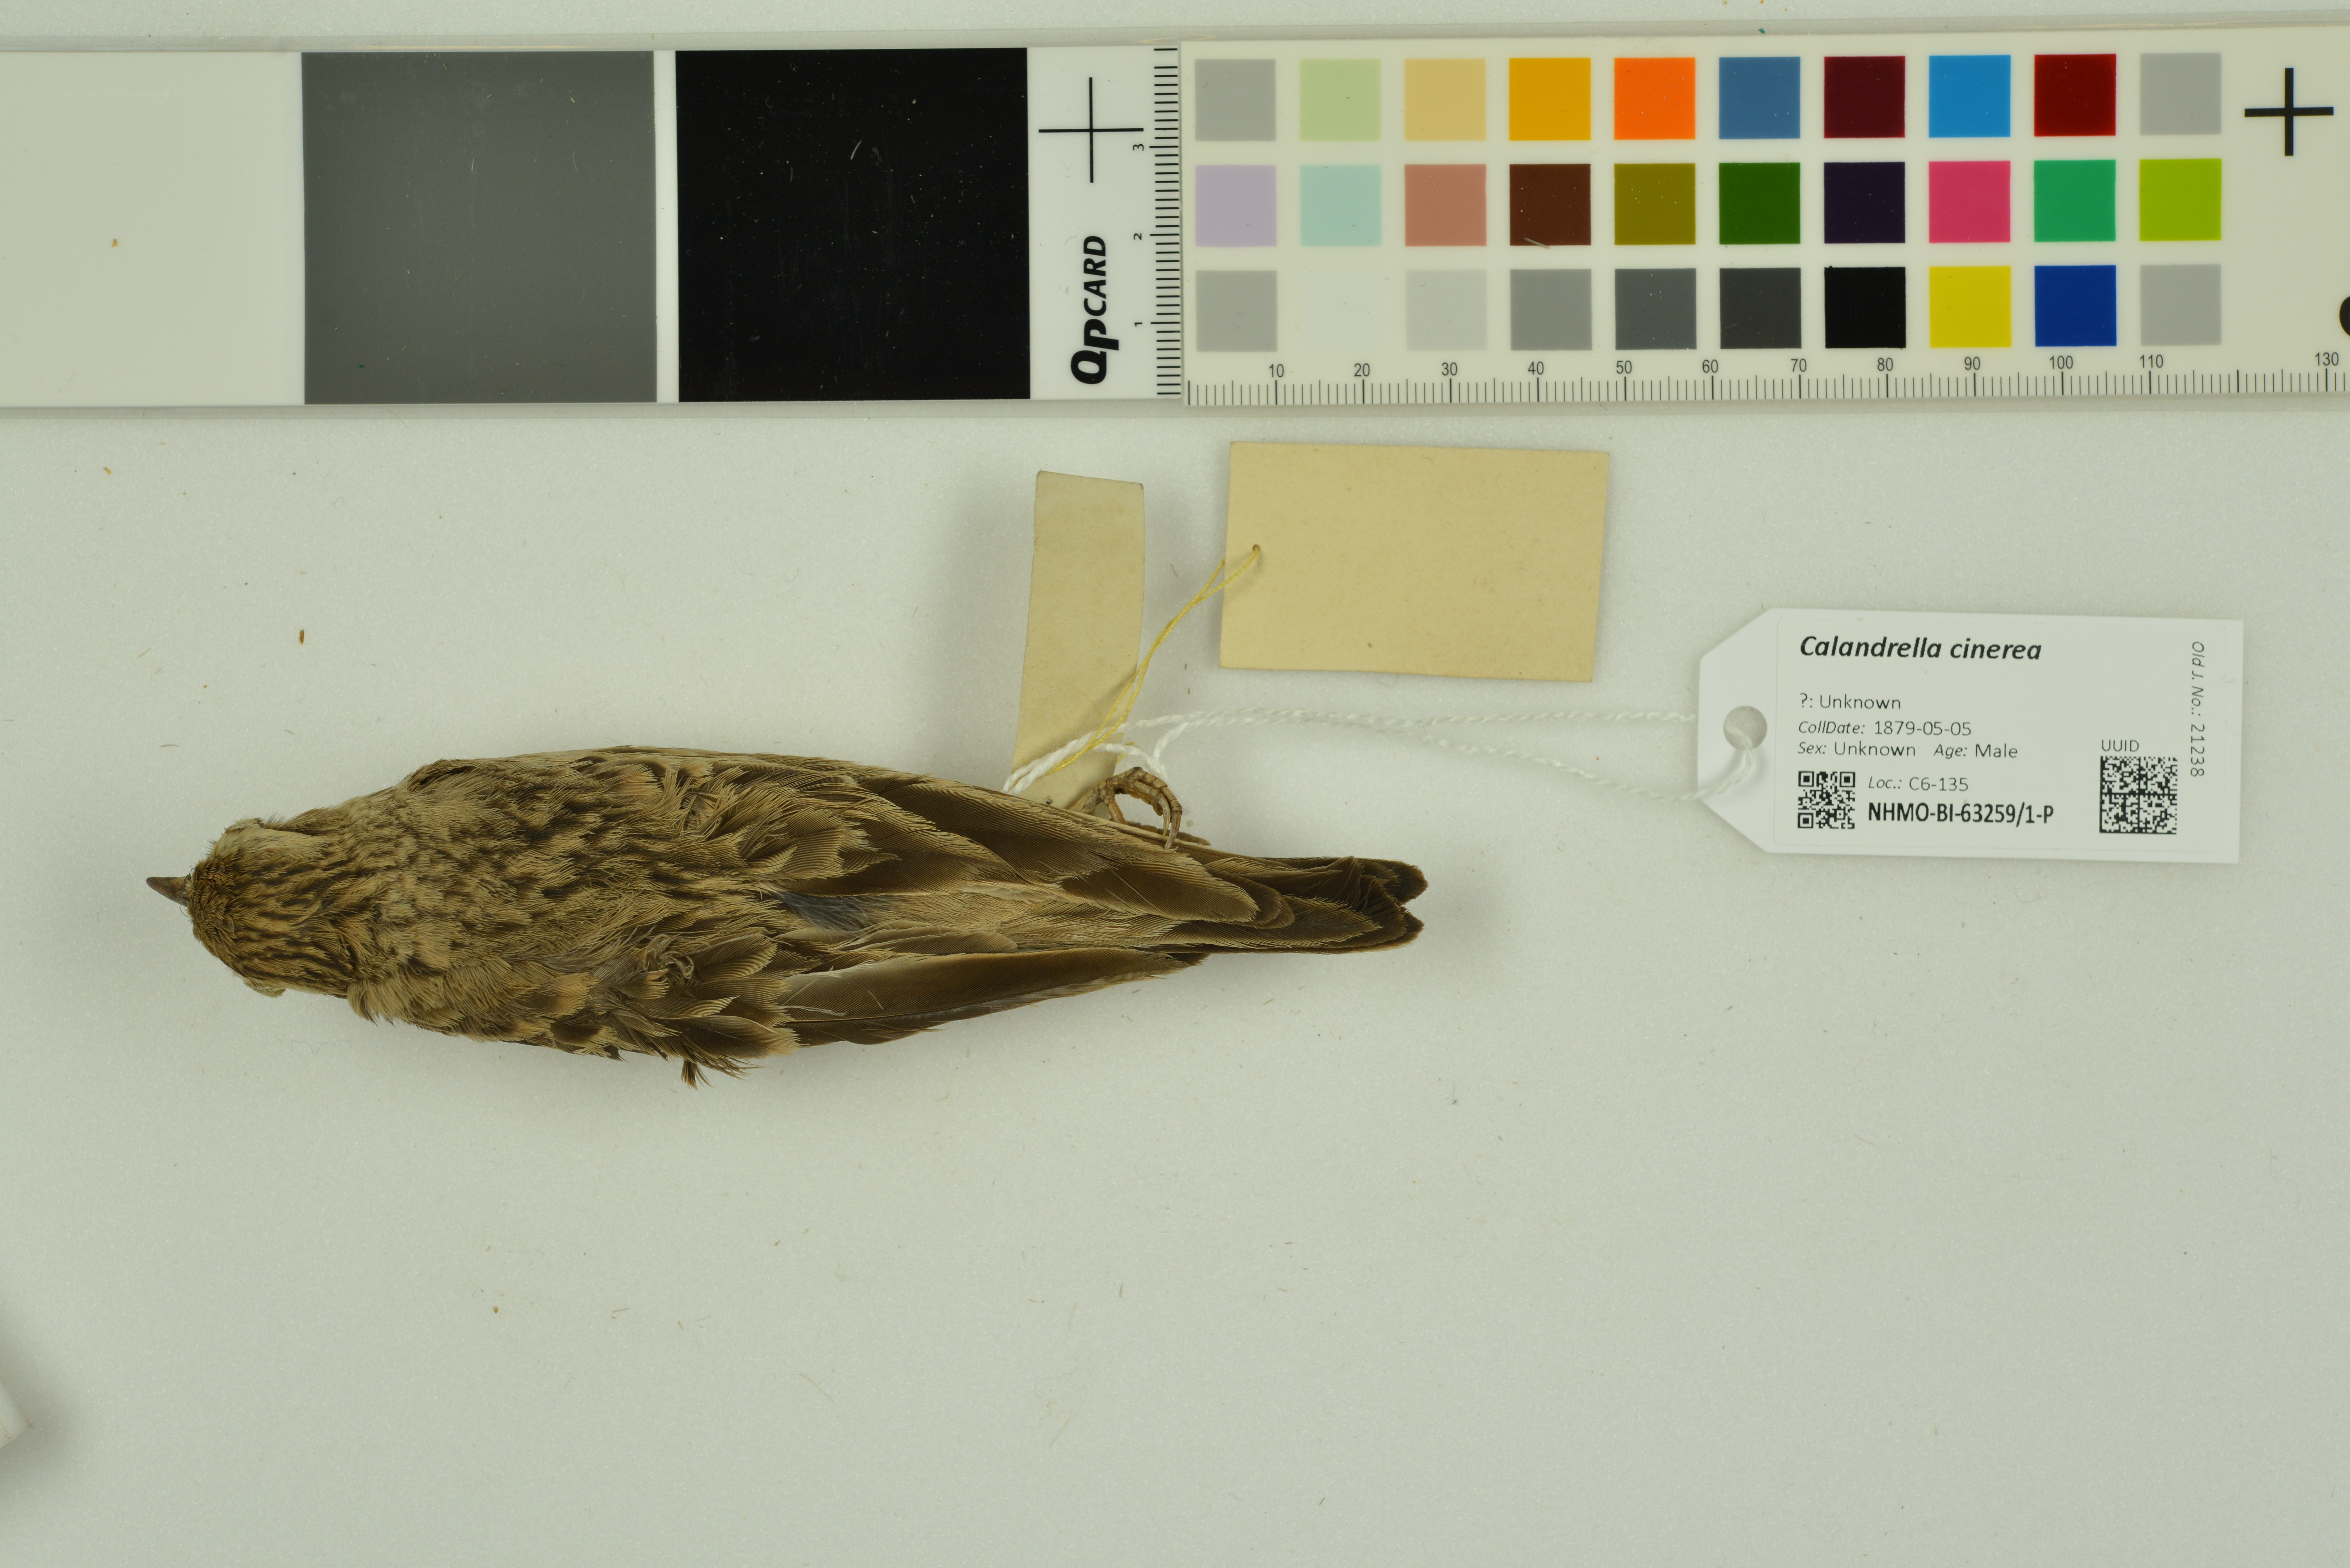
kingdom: Animalia
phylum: Chordata
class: Aves
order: Passeriformes
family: Alaudidae
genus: Calandrella
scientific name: Calandrella cinerea
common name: Red-capped lark
